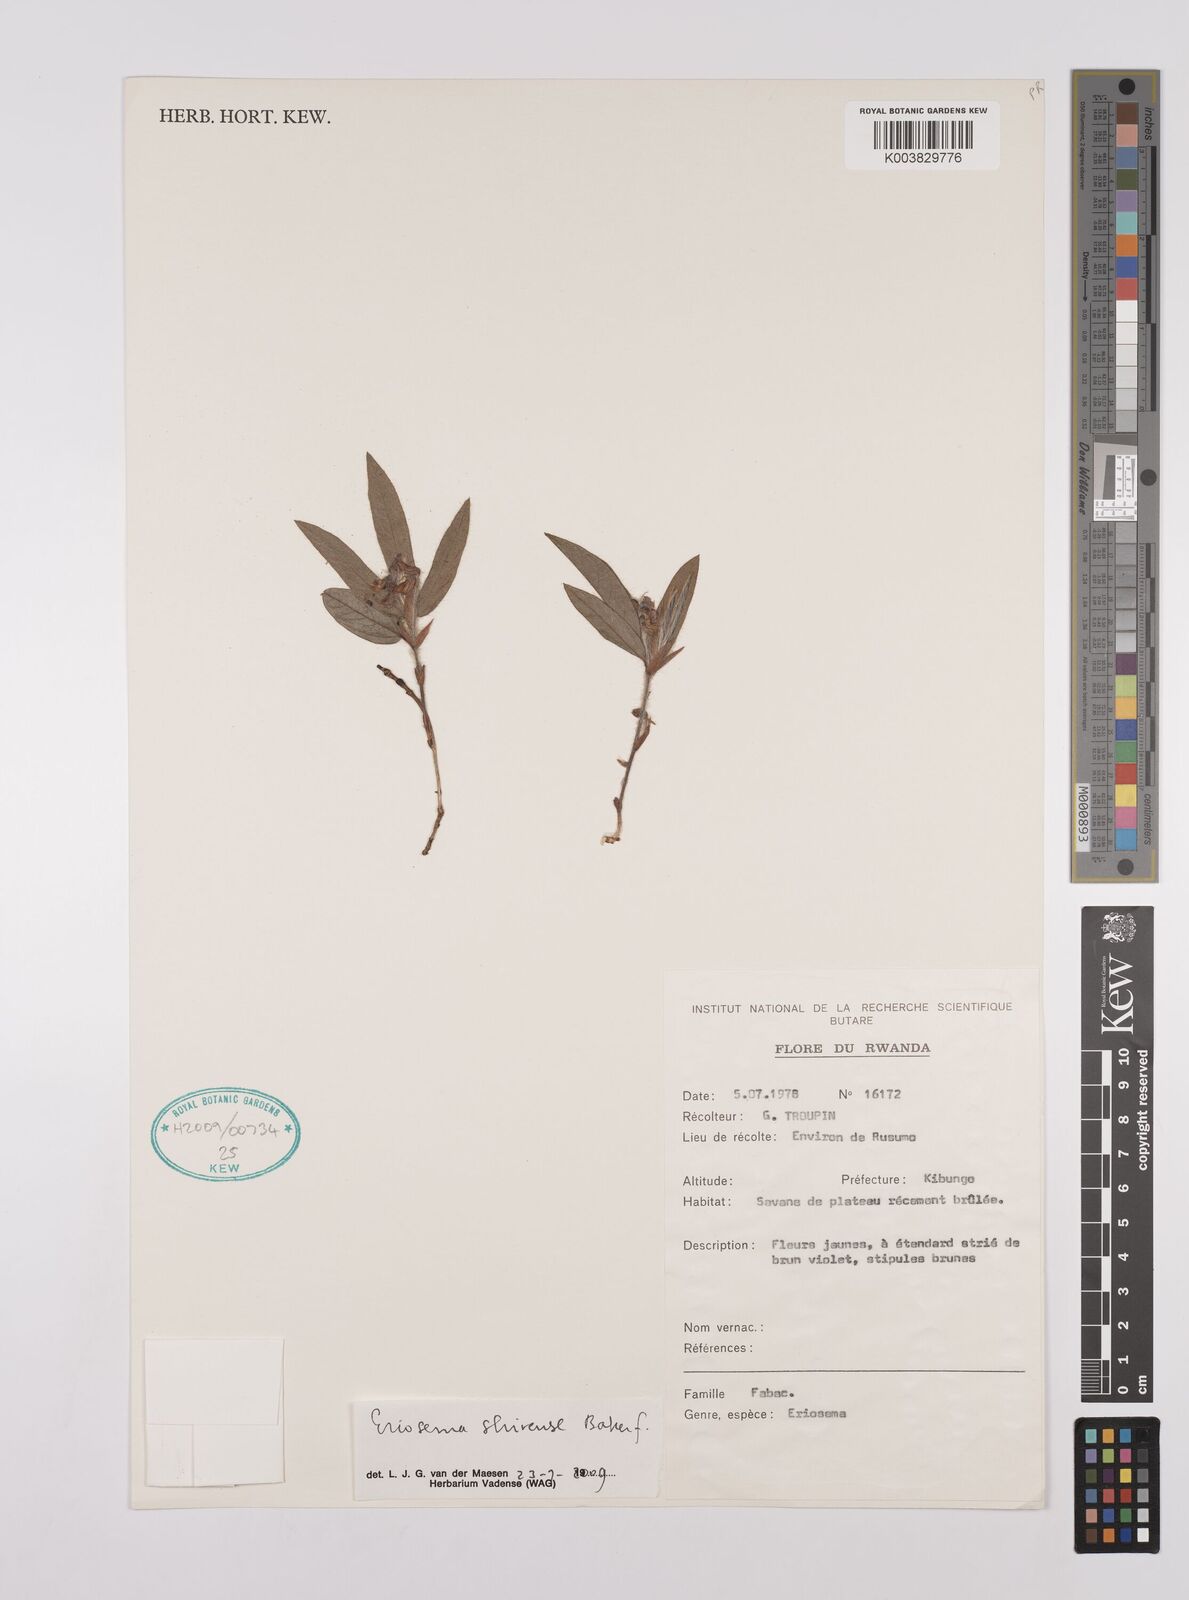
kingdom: Plantae
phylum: Tracheophyta
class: Magnoliopsida
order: Fabales
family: Fabaceae
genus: Eriosema
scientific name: Eriosema shirense
